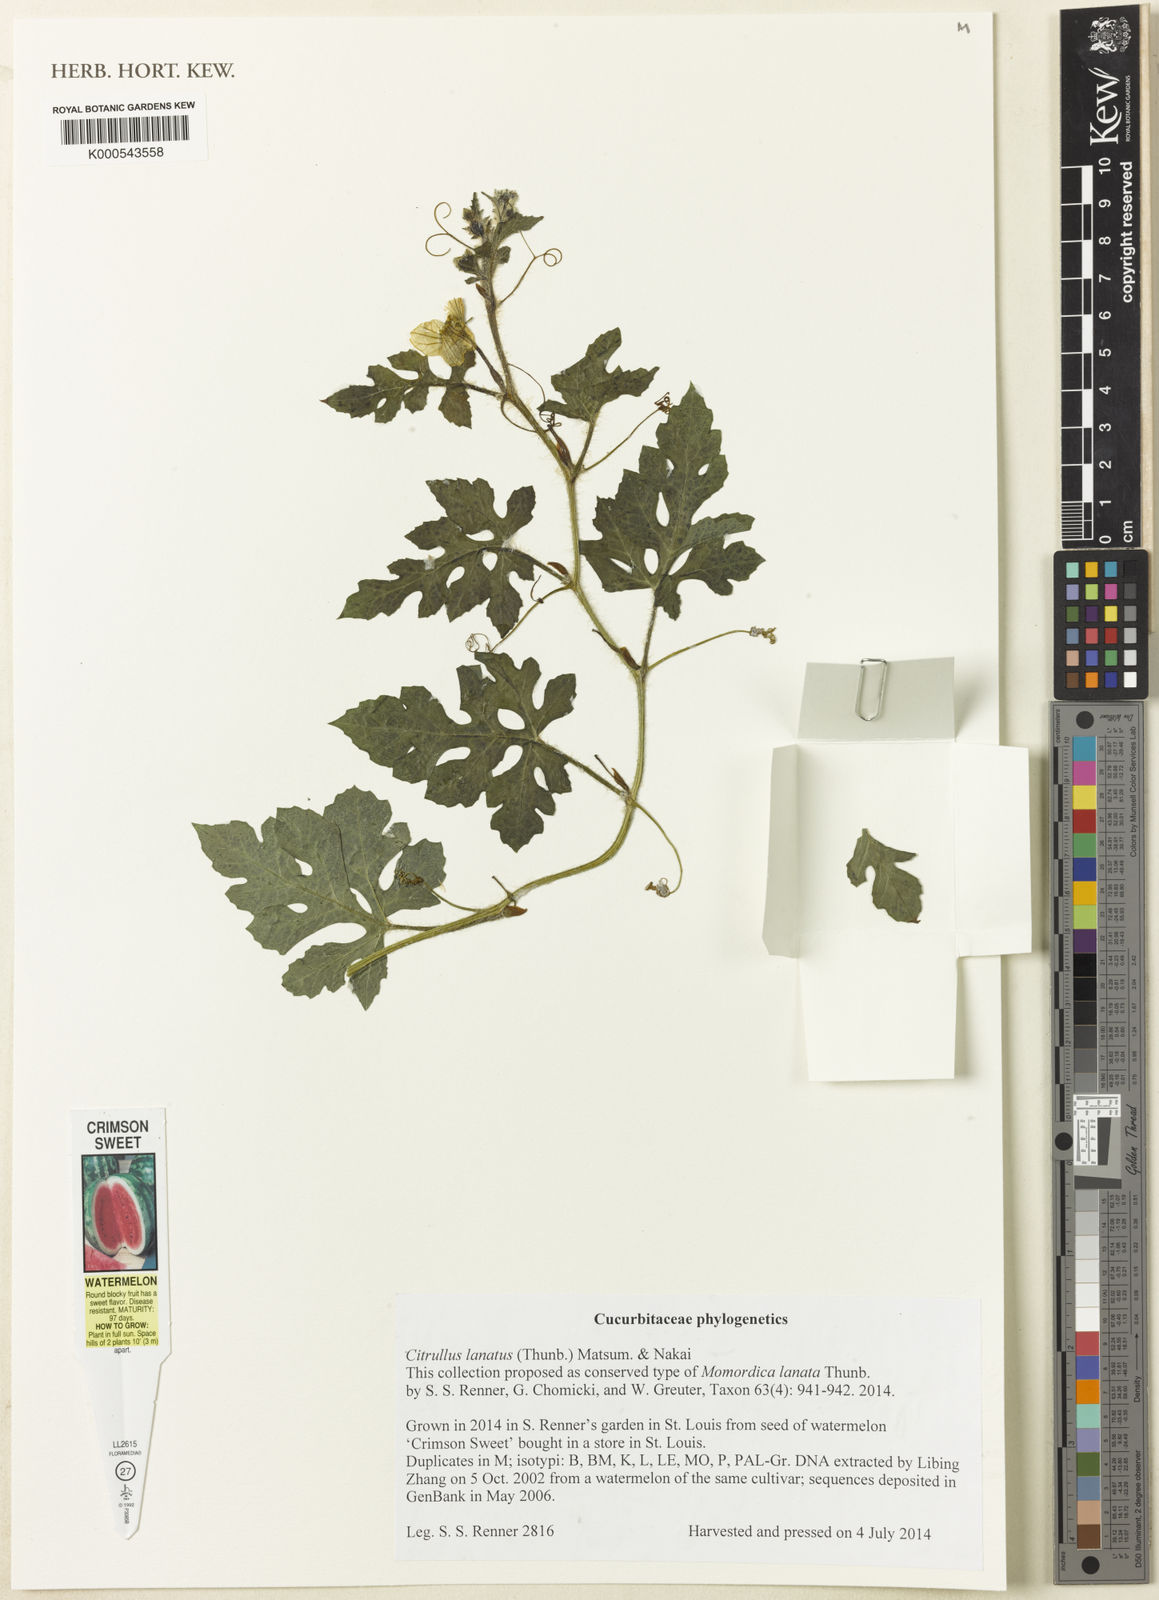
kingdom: Plantae
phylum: Tracheophyta
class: Magnoliopsida
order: Cucurbitales
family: Cucurbitaceae
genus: Citrullus
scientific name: Citrullus lanatus
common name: Watermelon
